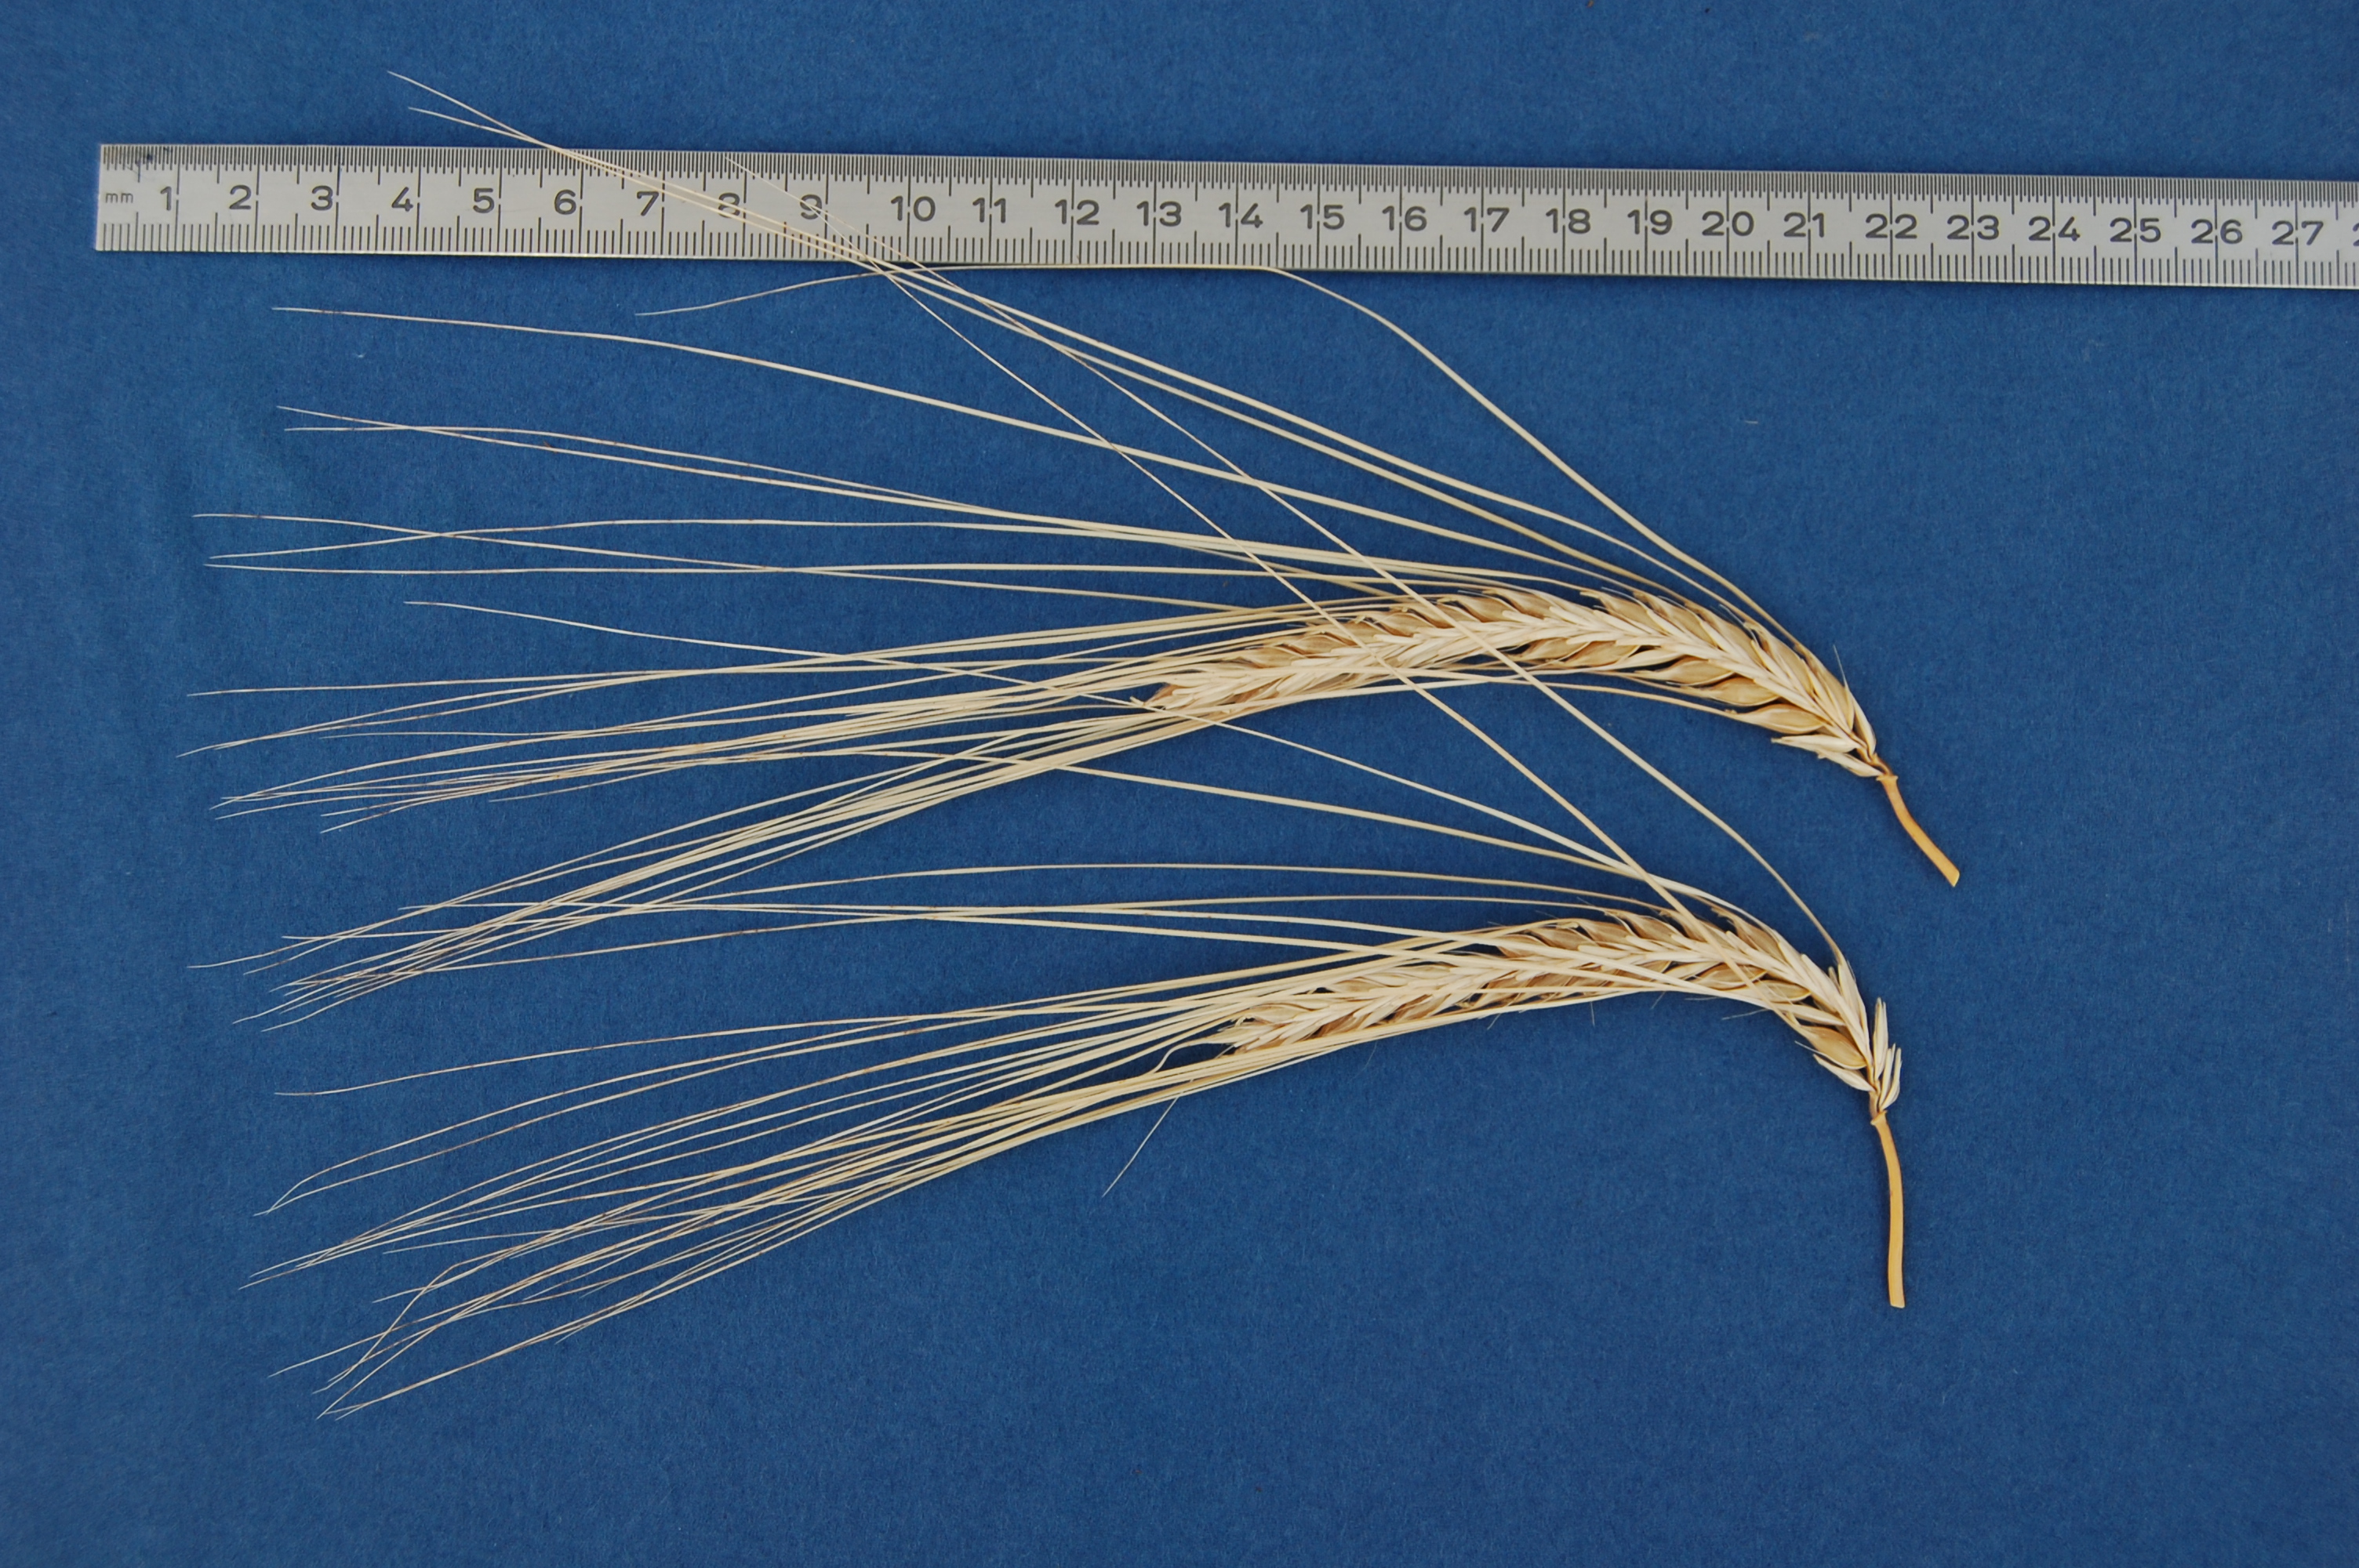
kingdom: Plantae
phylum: Tracheophyta
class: Liliopsida
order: Poales
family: Poaceae
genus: Hordeum
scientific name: Hordeum vulgare
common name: Common barley
